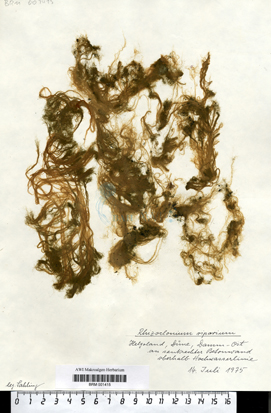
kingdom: Plantae
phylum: Chlorophyta
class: Ulvophyceae
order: Cladophorales
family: Cladophoraceae
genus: Rhizoclonium
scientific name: Rhizoclonium riparium
